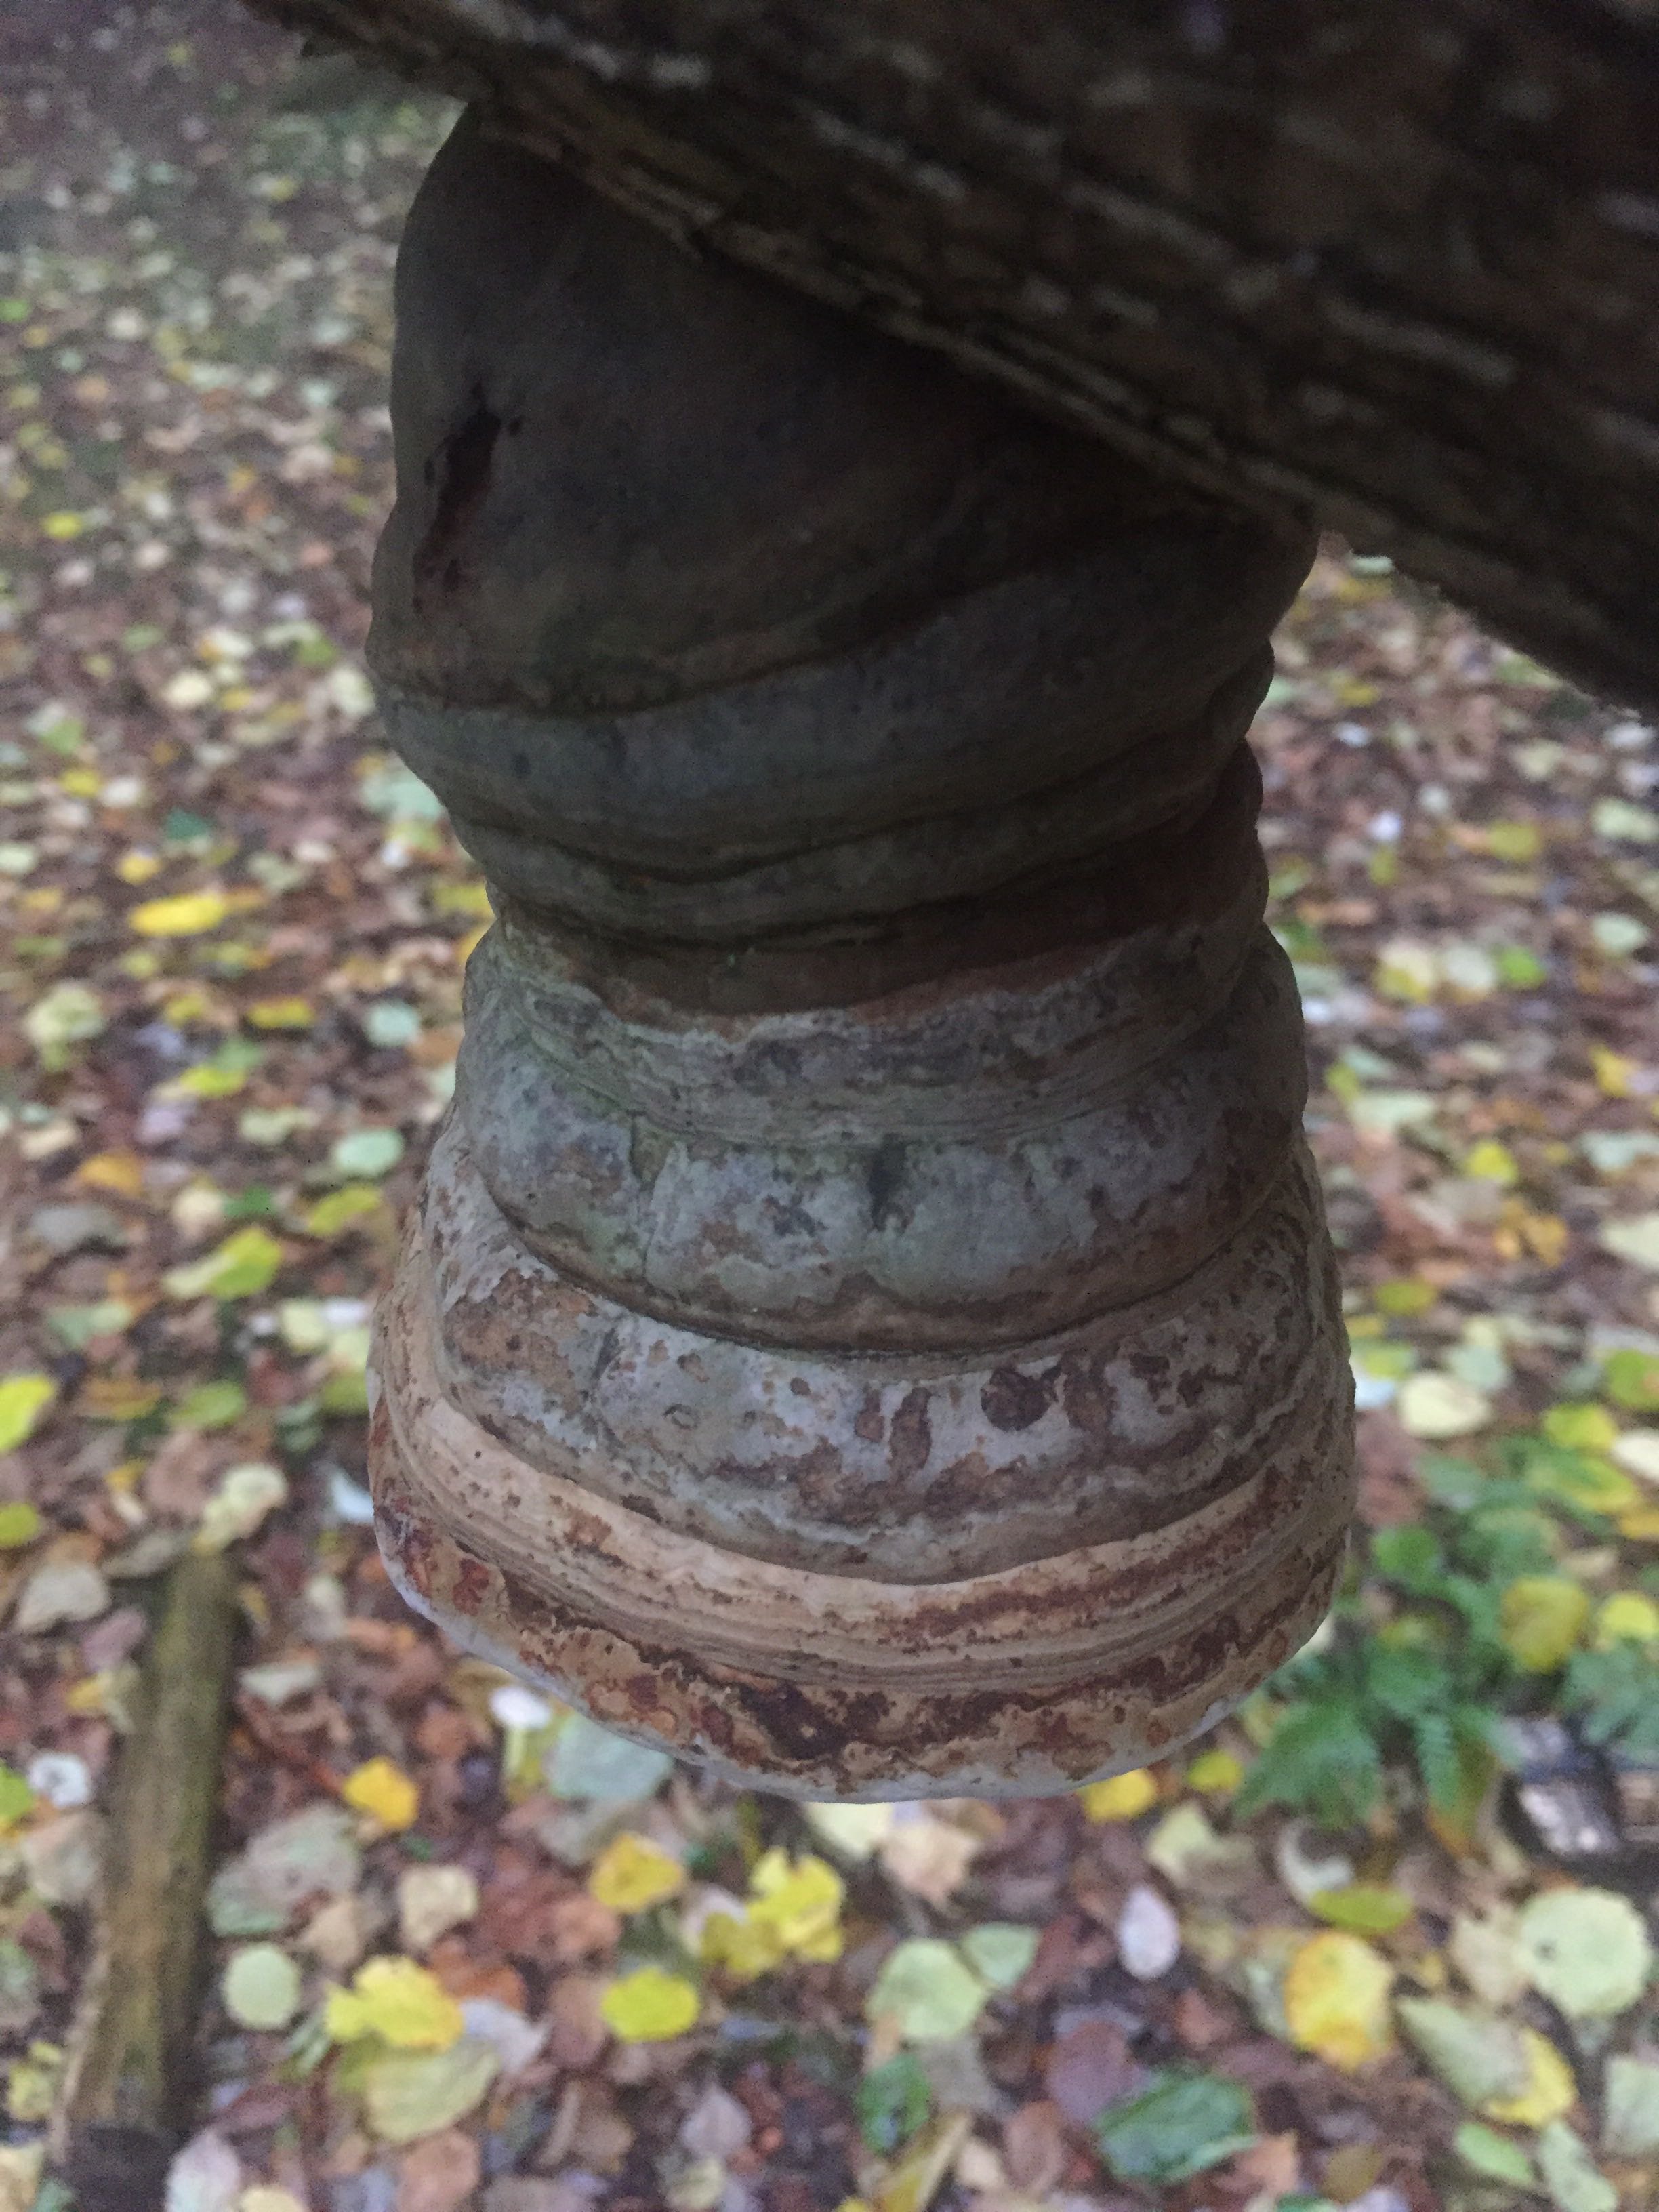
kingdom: Fungi
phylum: Basidiomycota
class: Agaricomycetes
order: Polyporales
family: Polyporaceae
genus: Fomes
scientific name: Fomes fomentarius
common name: tøndersvamp
